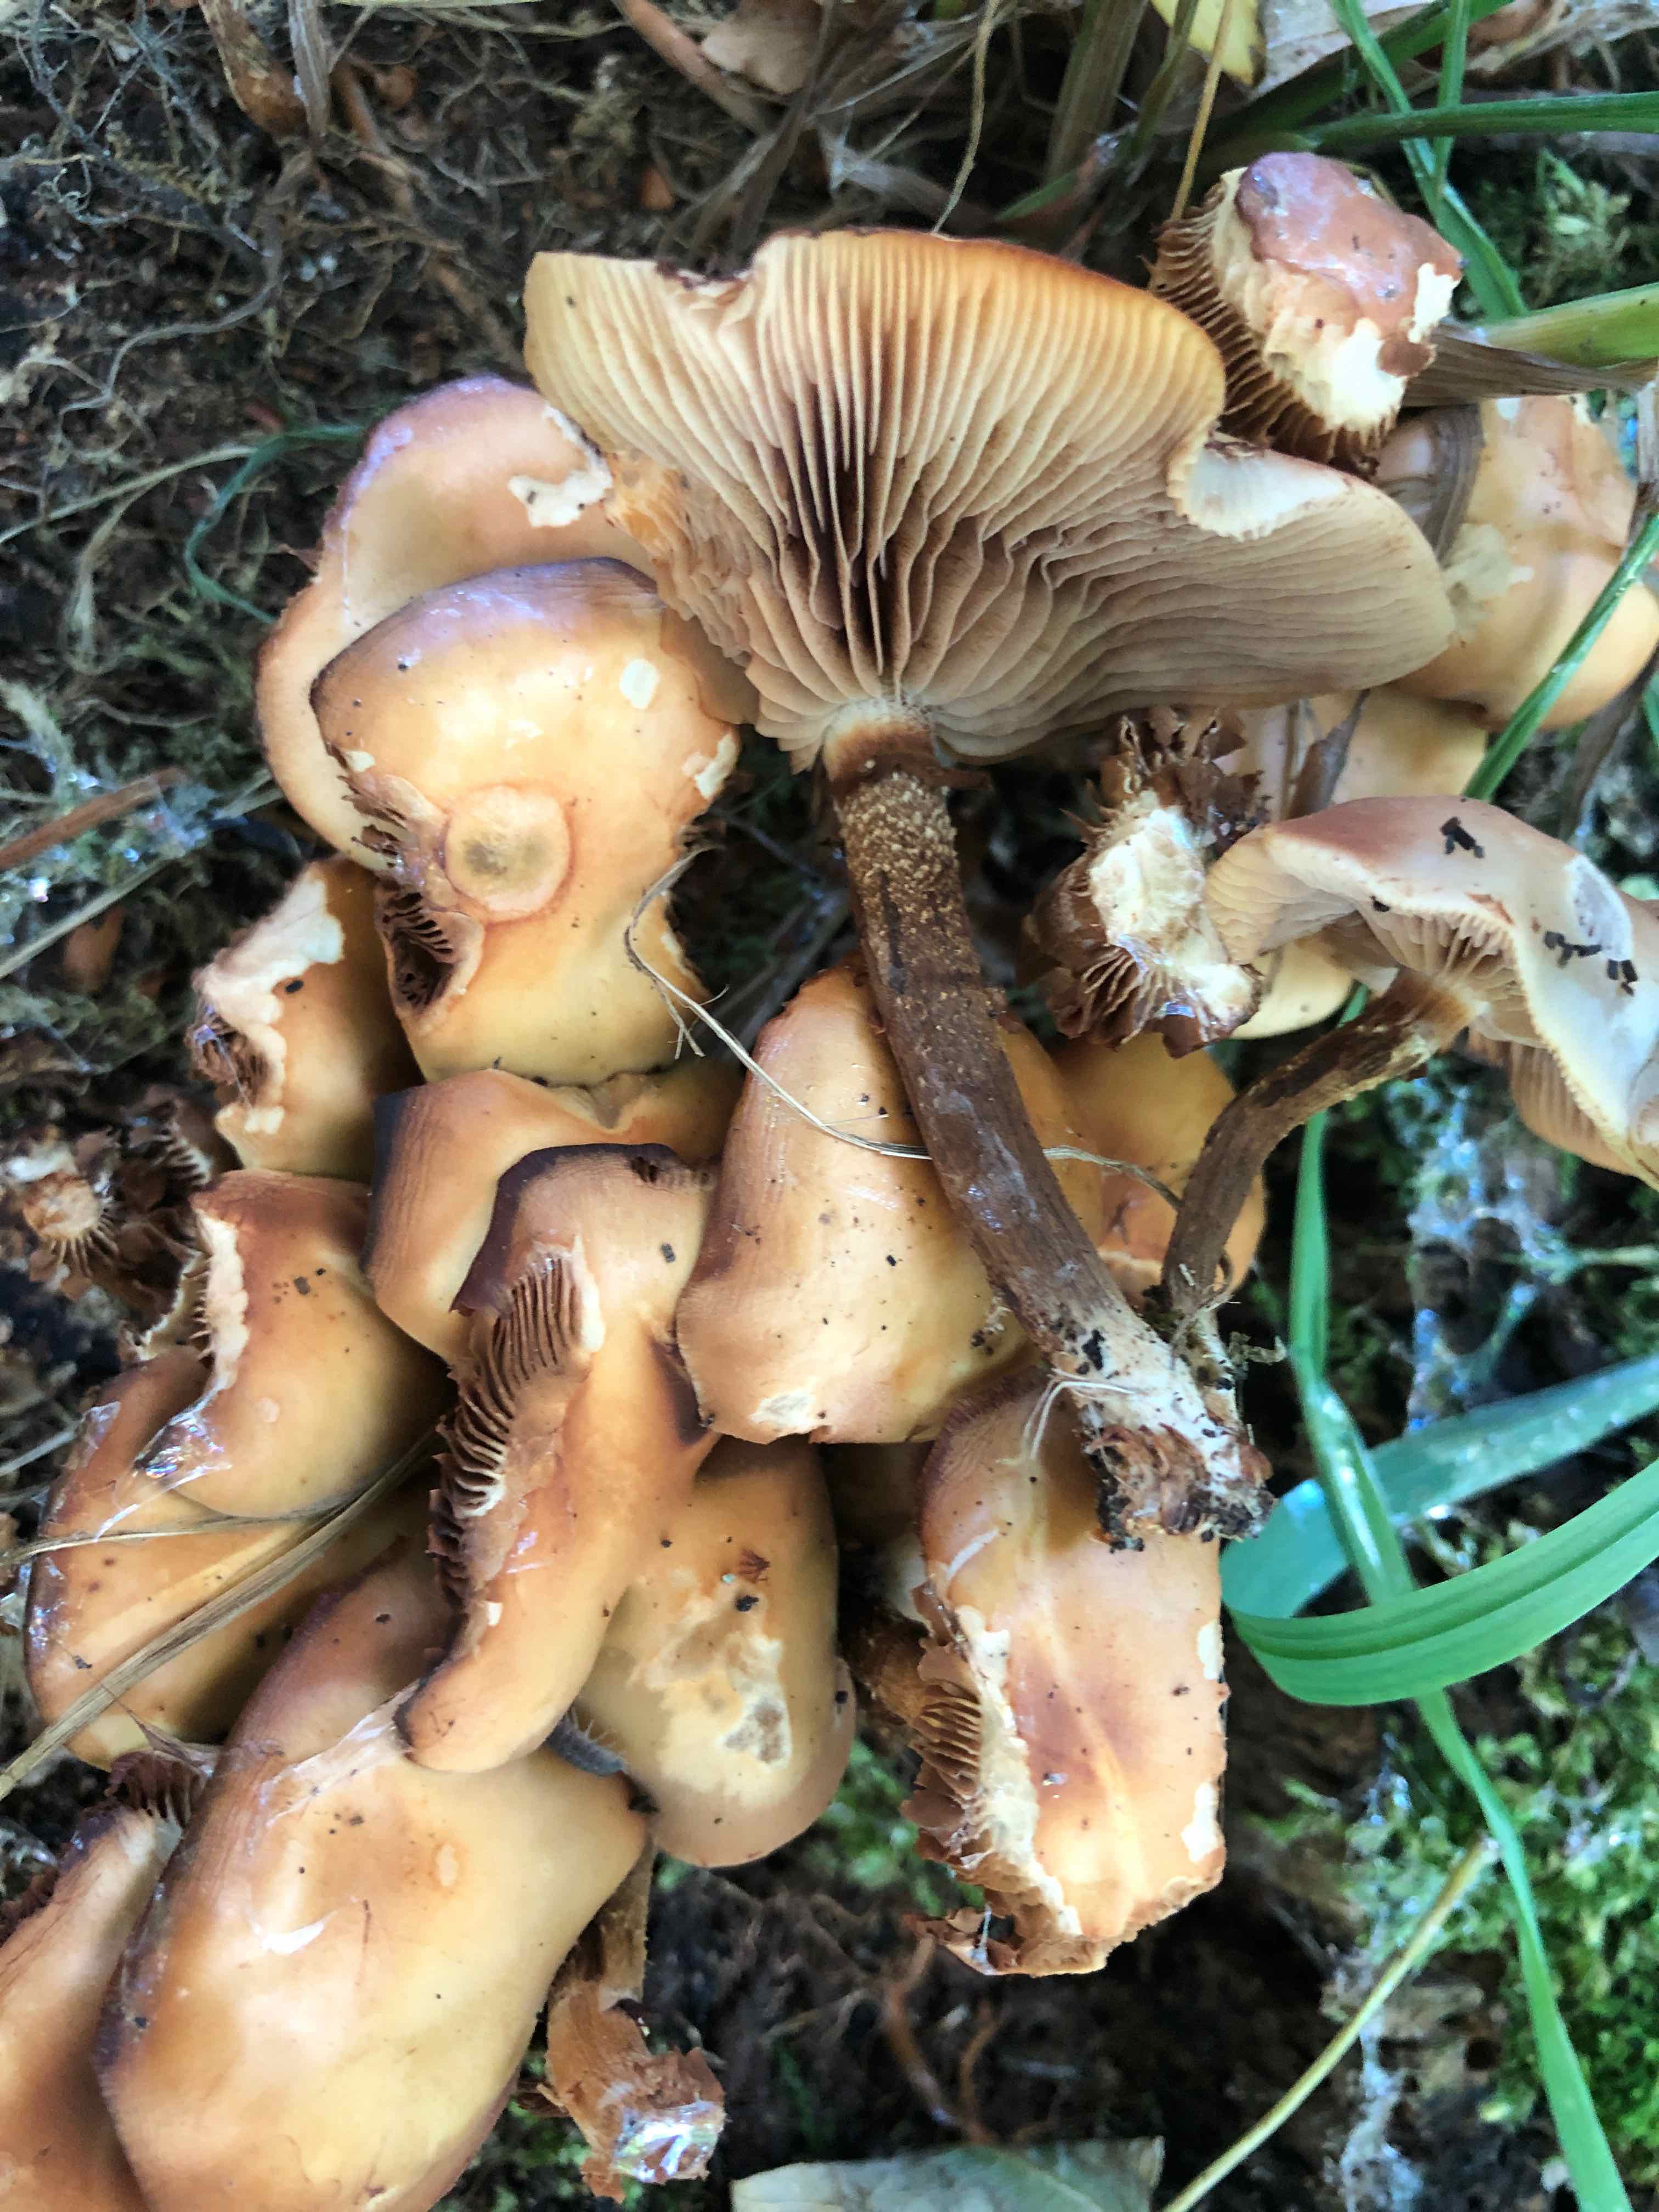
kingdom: Fungi
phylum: Basidiomycota
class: Agaricomycetes
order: Agaricales
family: Strophariaceae
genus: Kuehneromyces
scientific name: Kuehneromyces mutabilis
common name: foranderlig skælhat
